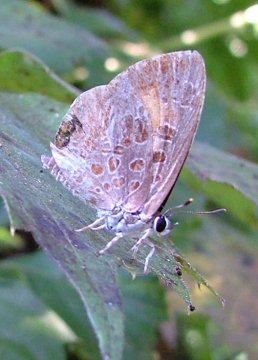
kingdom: Animalia
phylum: Arthropoda
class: Insecta
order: Lepidoptera
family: Lycaenidae
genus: Feniseca
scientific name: Feniseca tarquinius
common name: Harvester
